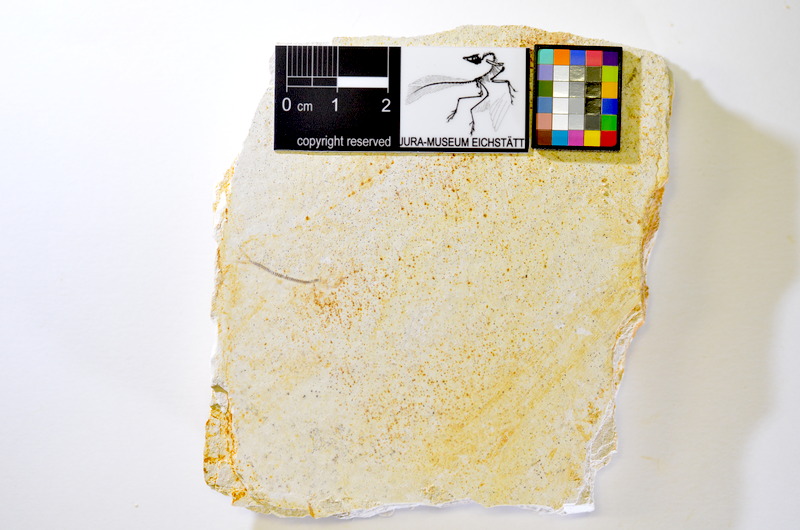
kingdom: Animalia
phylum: Chordata
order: Salmoniformes
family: Orthogonikleithridae
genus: Orthogonikleithrus
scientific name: Orthogonikleithrus hoelli
